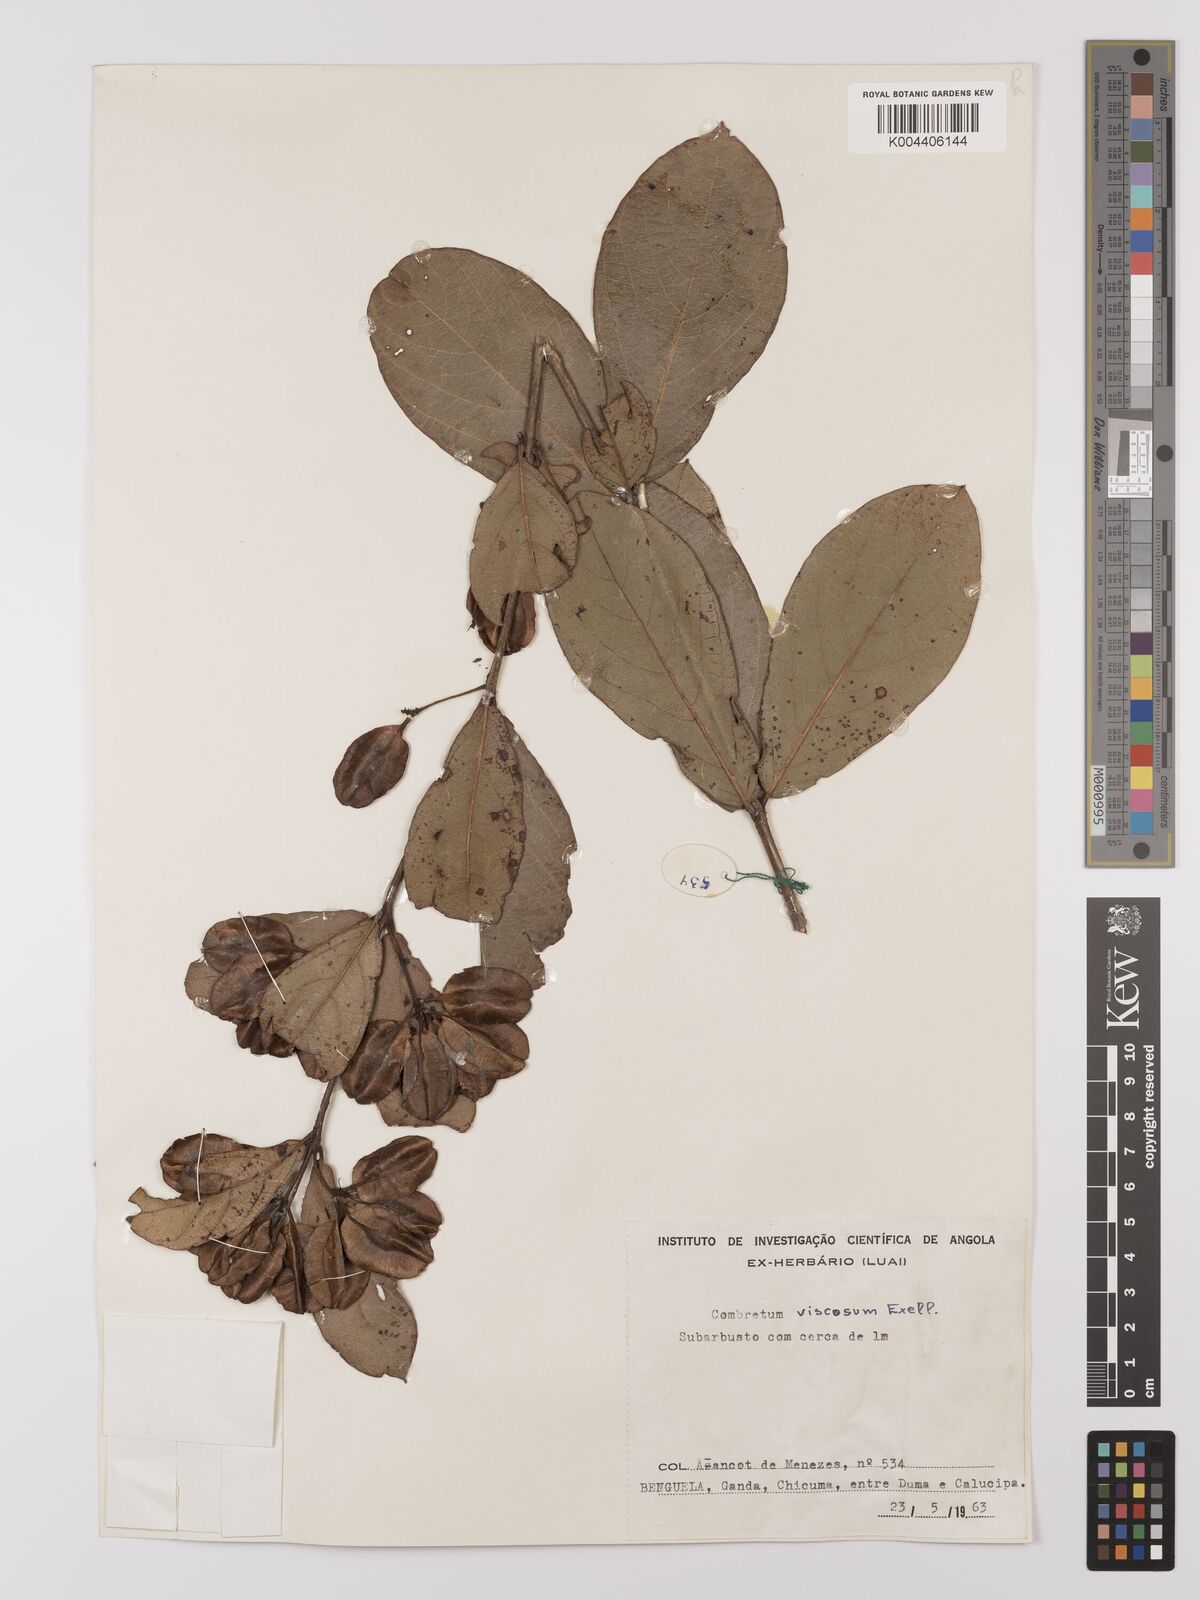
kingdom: Plantae
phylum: Tracheophyta
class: Magnoliopsida
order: Myrtales
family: Combretaceae
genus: Combretum
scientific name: Combretum viscosum
